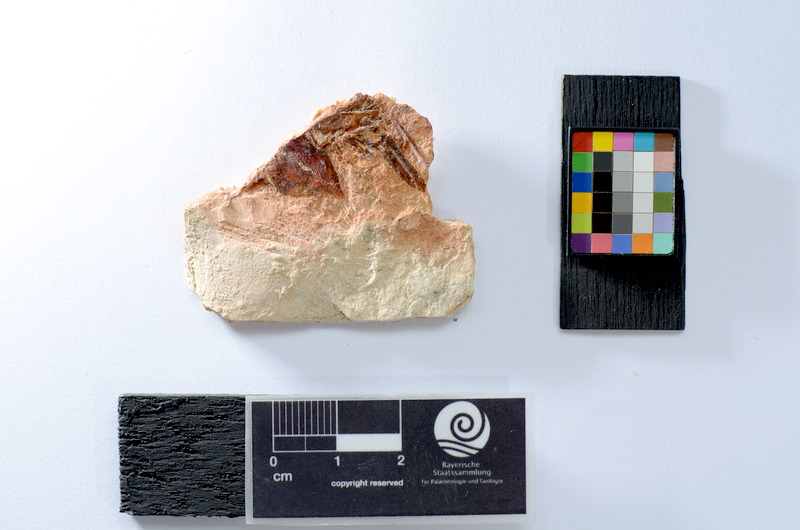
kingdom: Animalia
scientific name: Animalia
